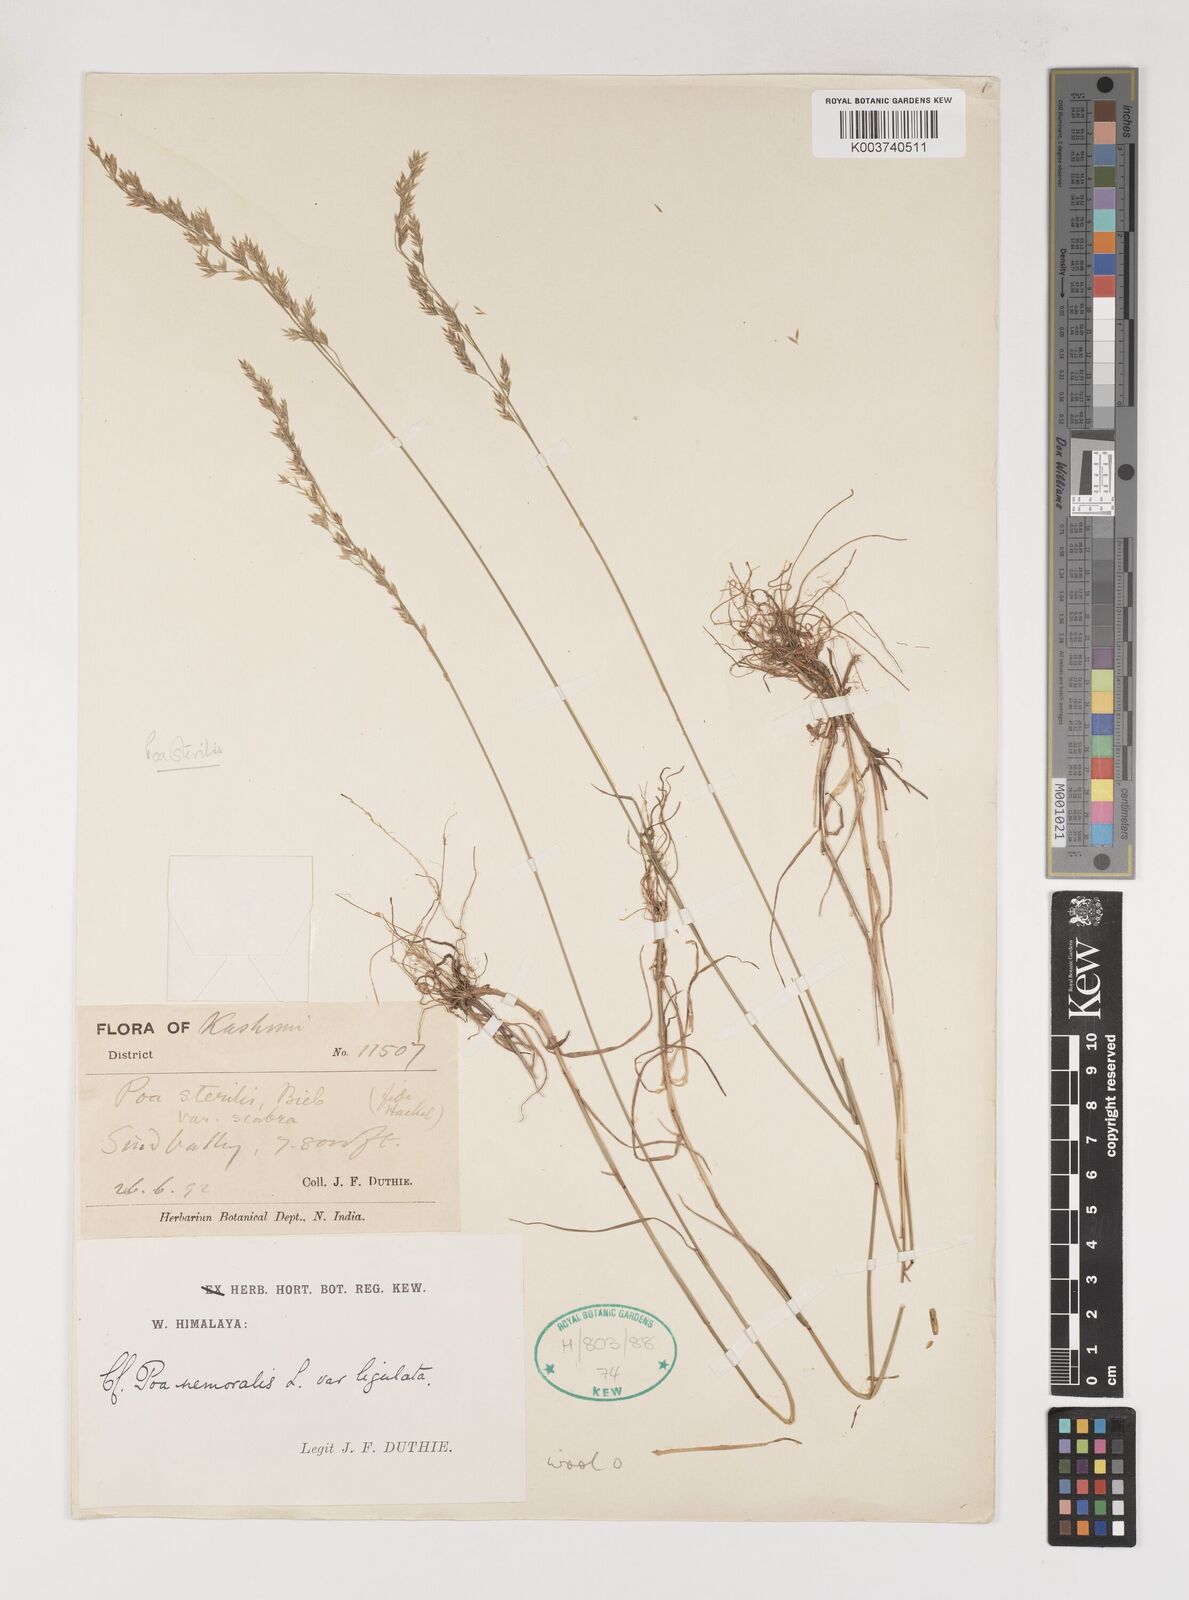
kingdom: Plantae
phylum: Tracheophyta
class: Liliopsida
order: Poales
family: Poaceae
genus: Poa
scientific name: Poa sterilis
